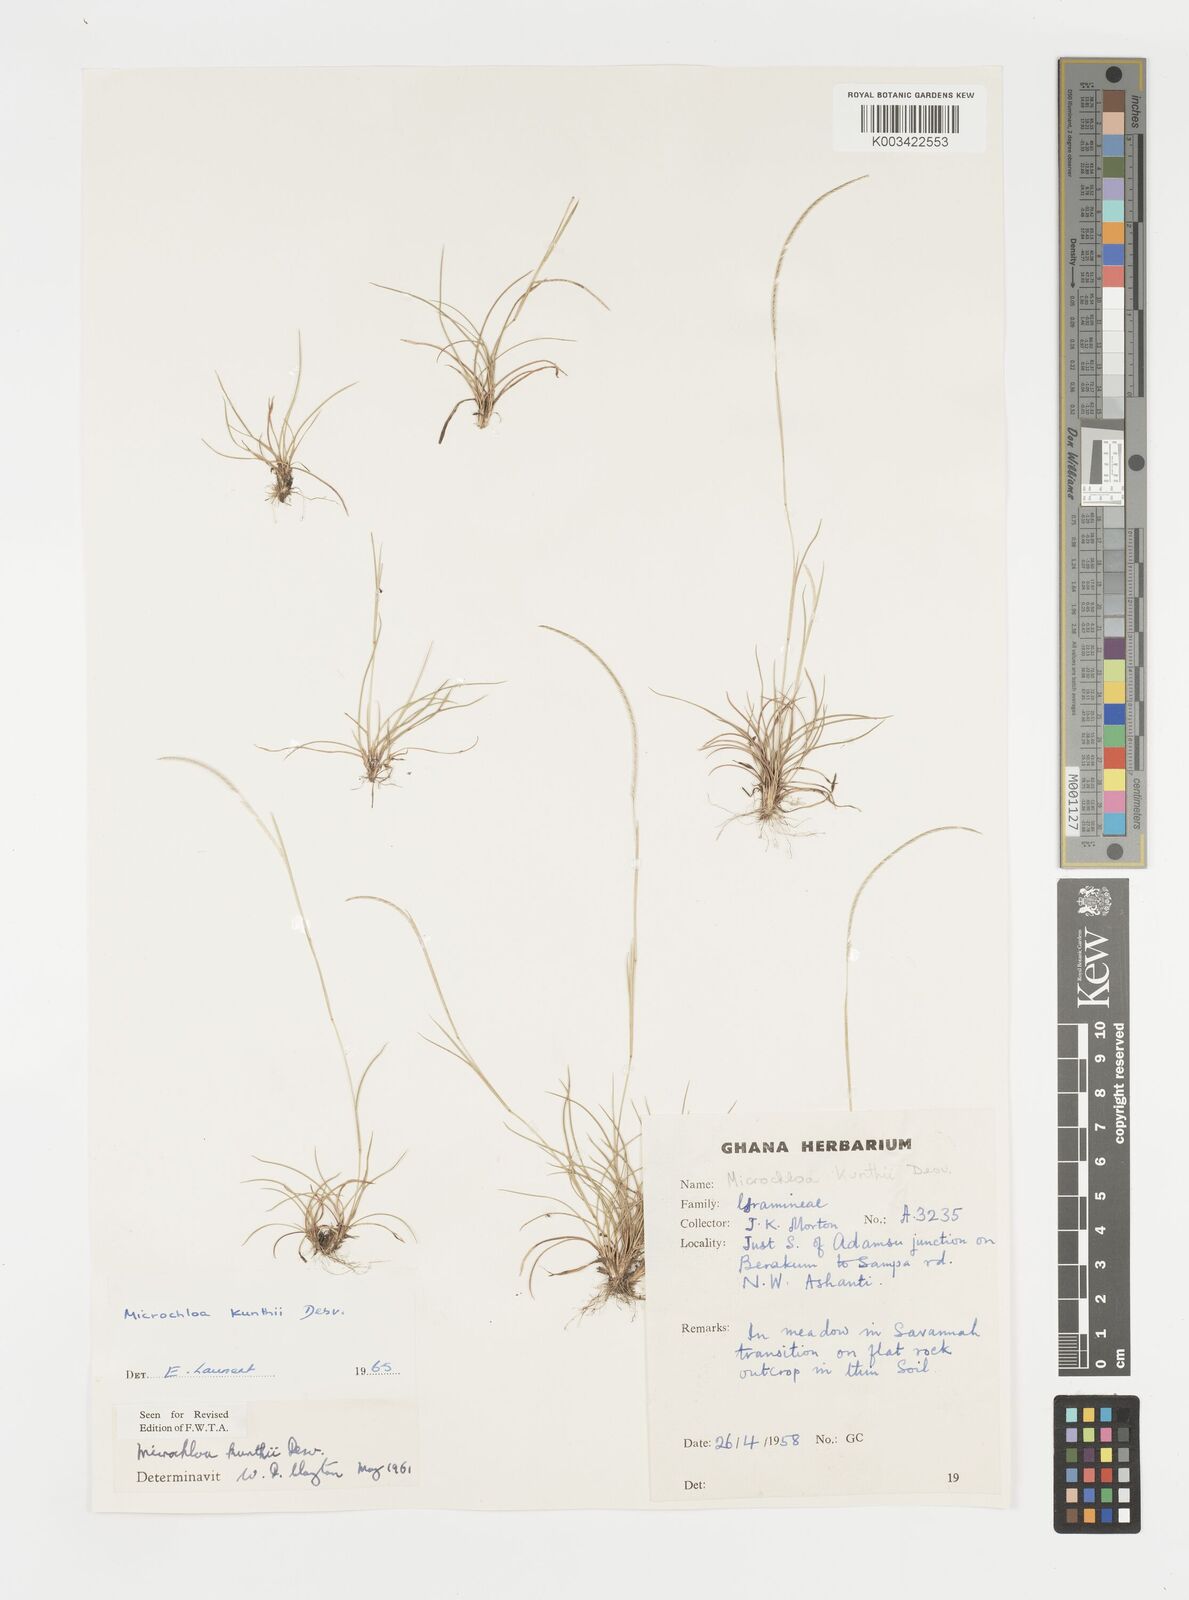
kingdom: Plantae
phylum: Tracheophyta
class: Liliopsida
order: Poales
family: Poaceae
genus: Microchloa
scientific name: Microchloa kunthii
